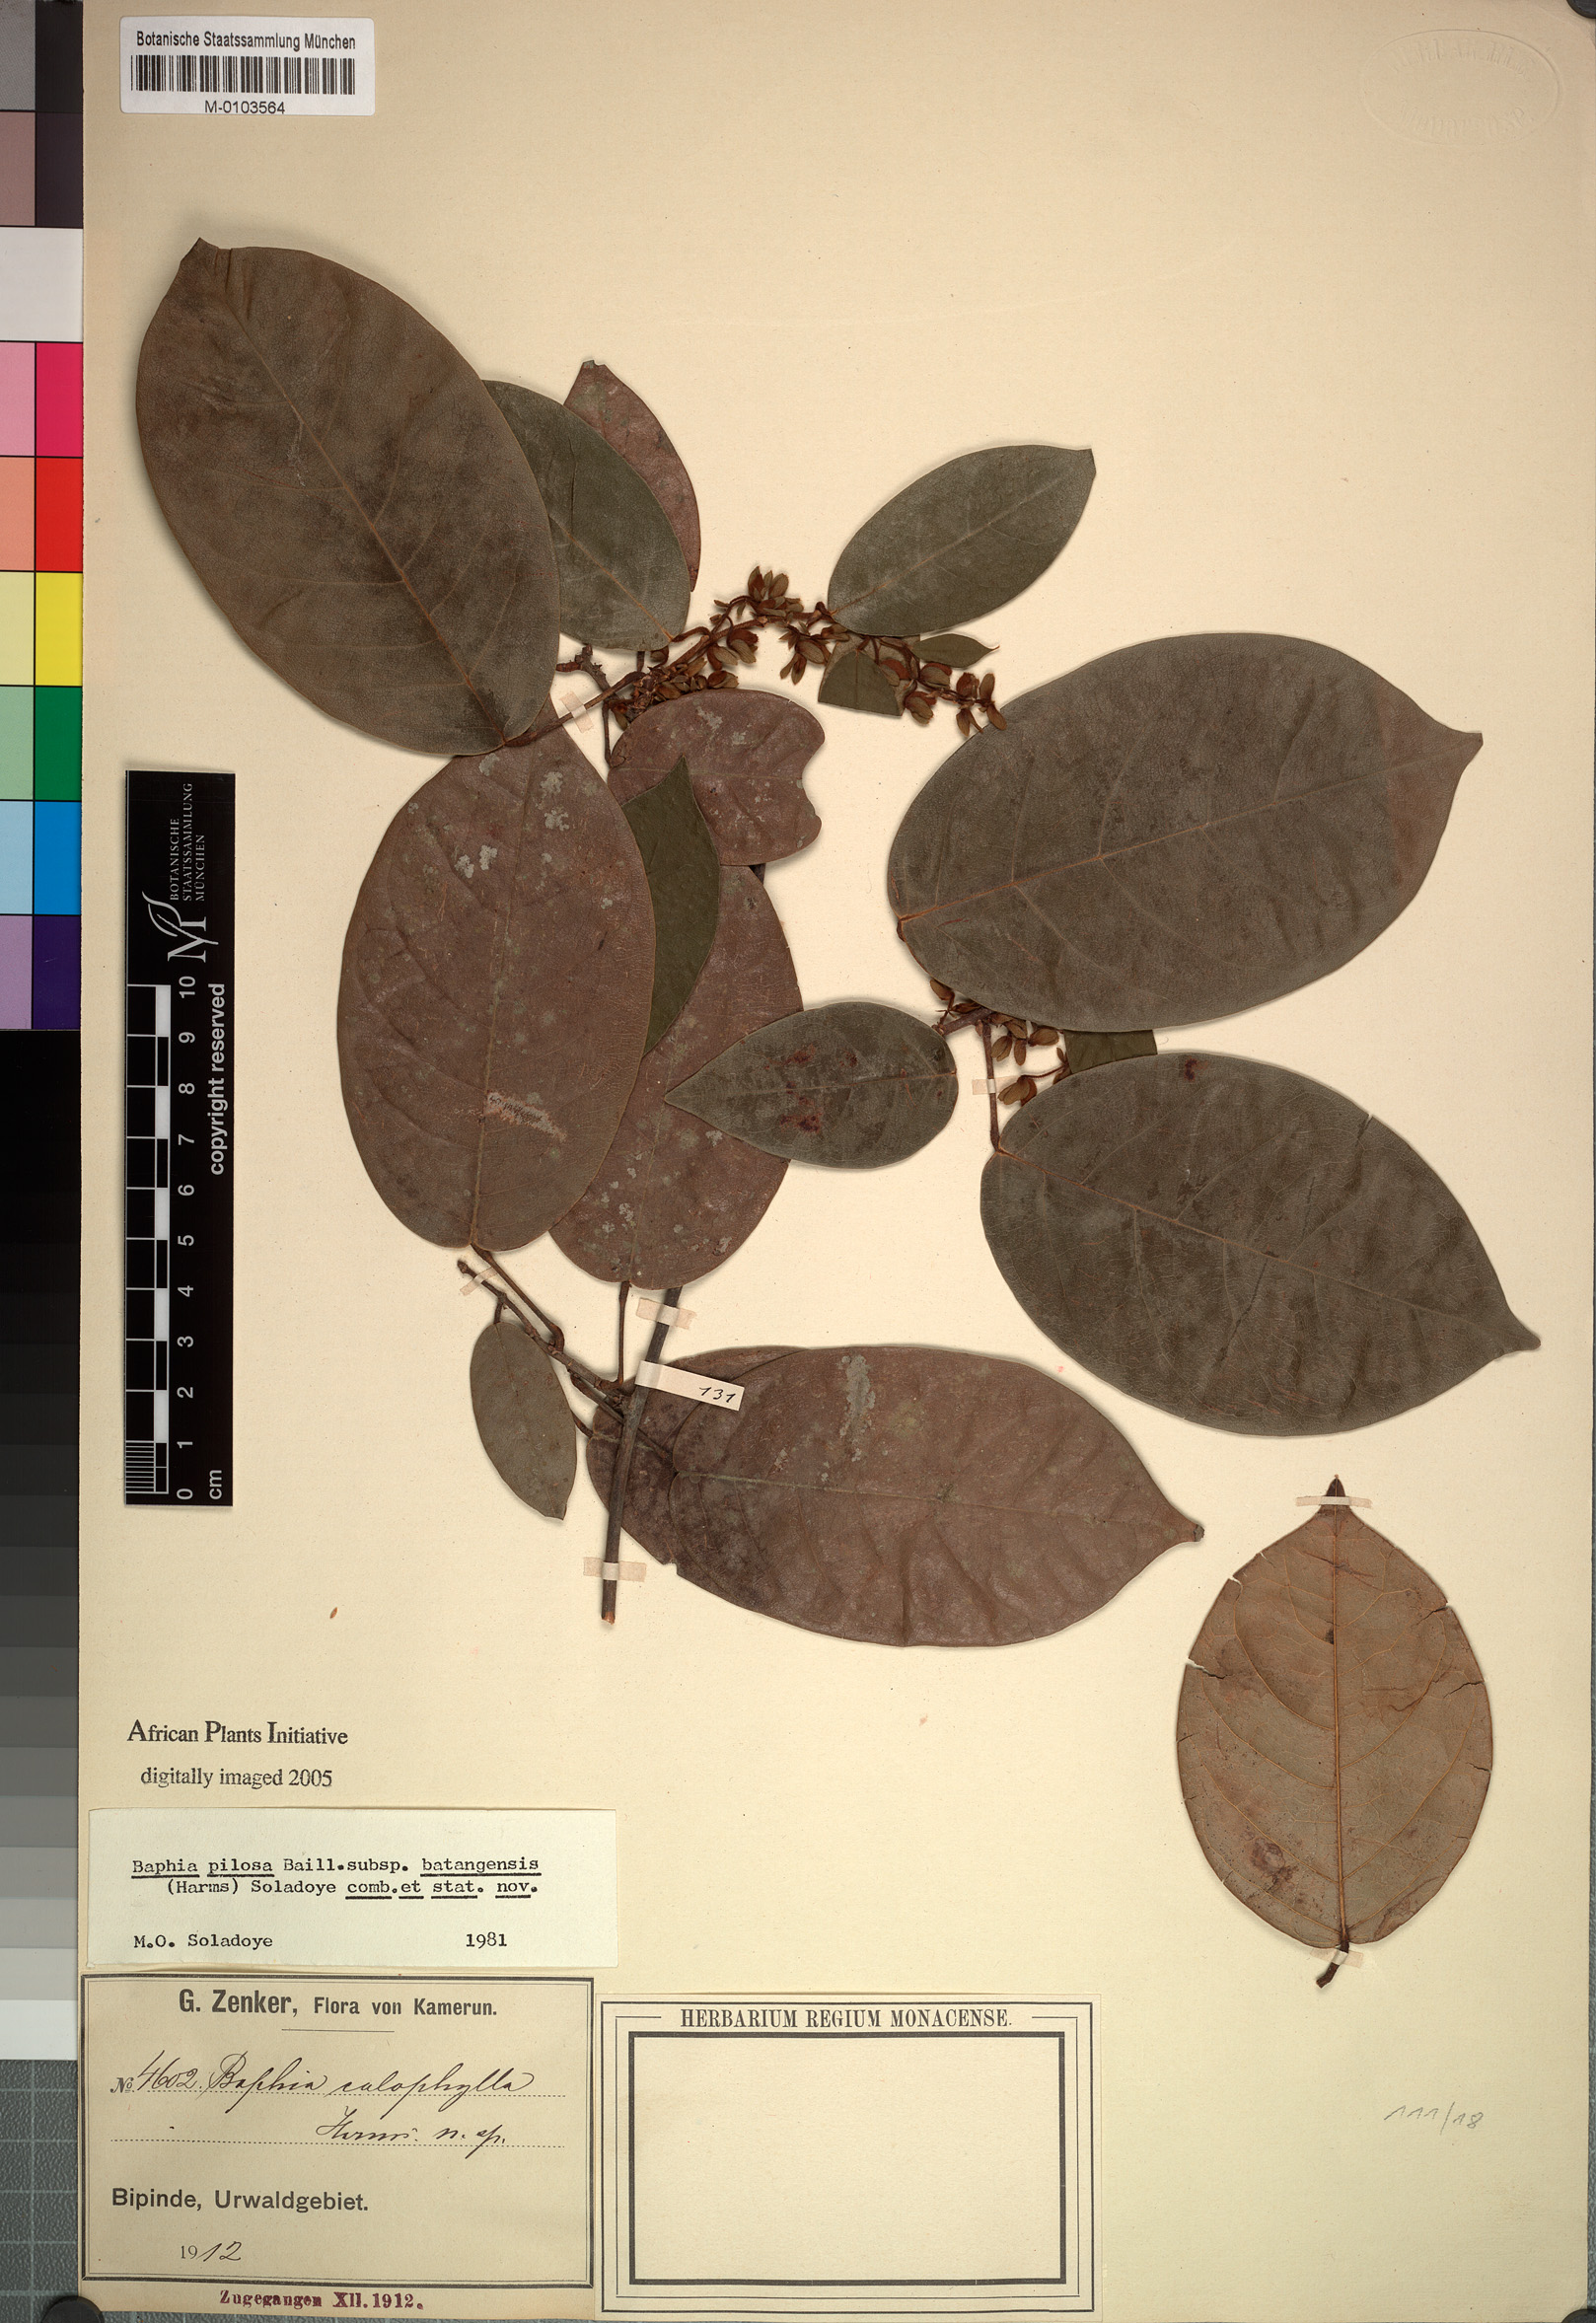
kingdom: Plantae
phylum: Tracheophyta
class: Magnoliopsida
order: Fabales
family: Fabaceae
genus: Baphia
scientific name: Baphia pilosa
